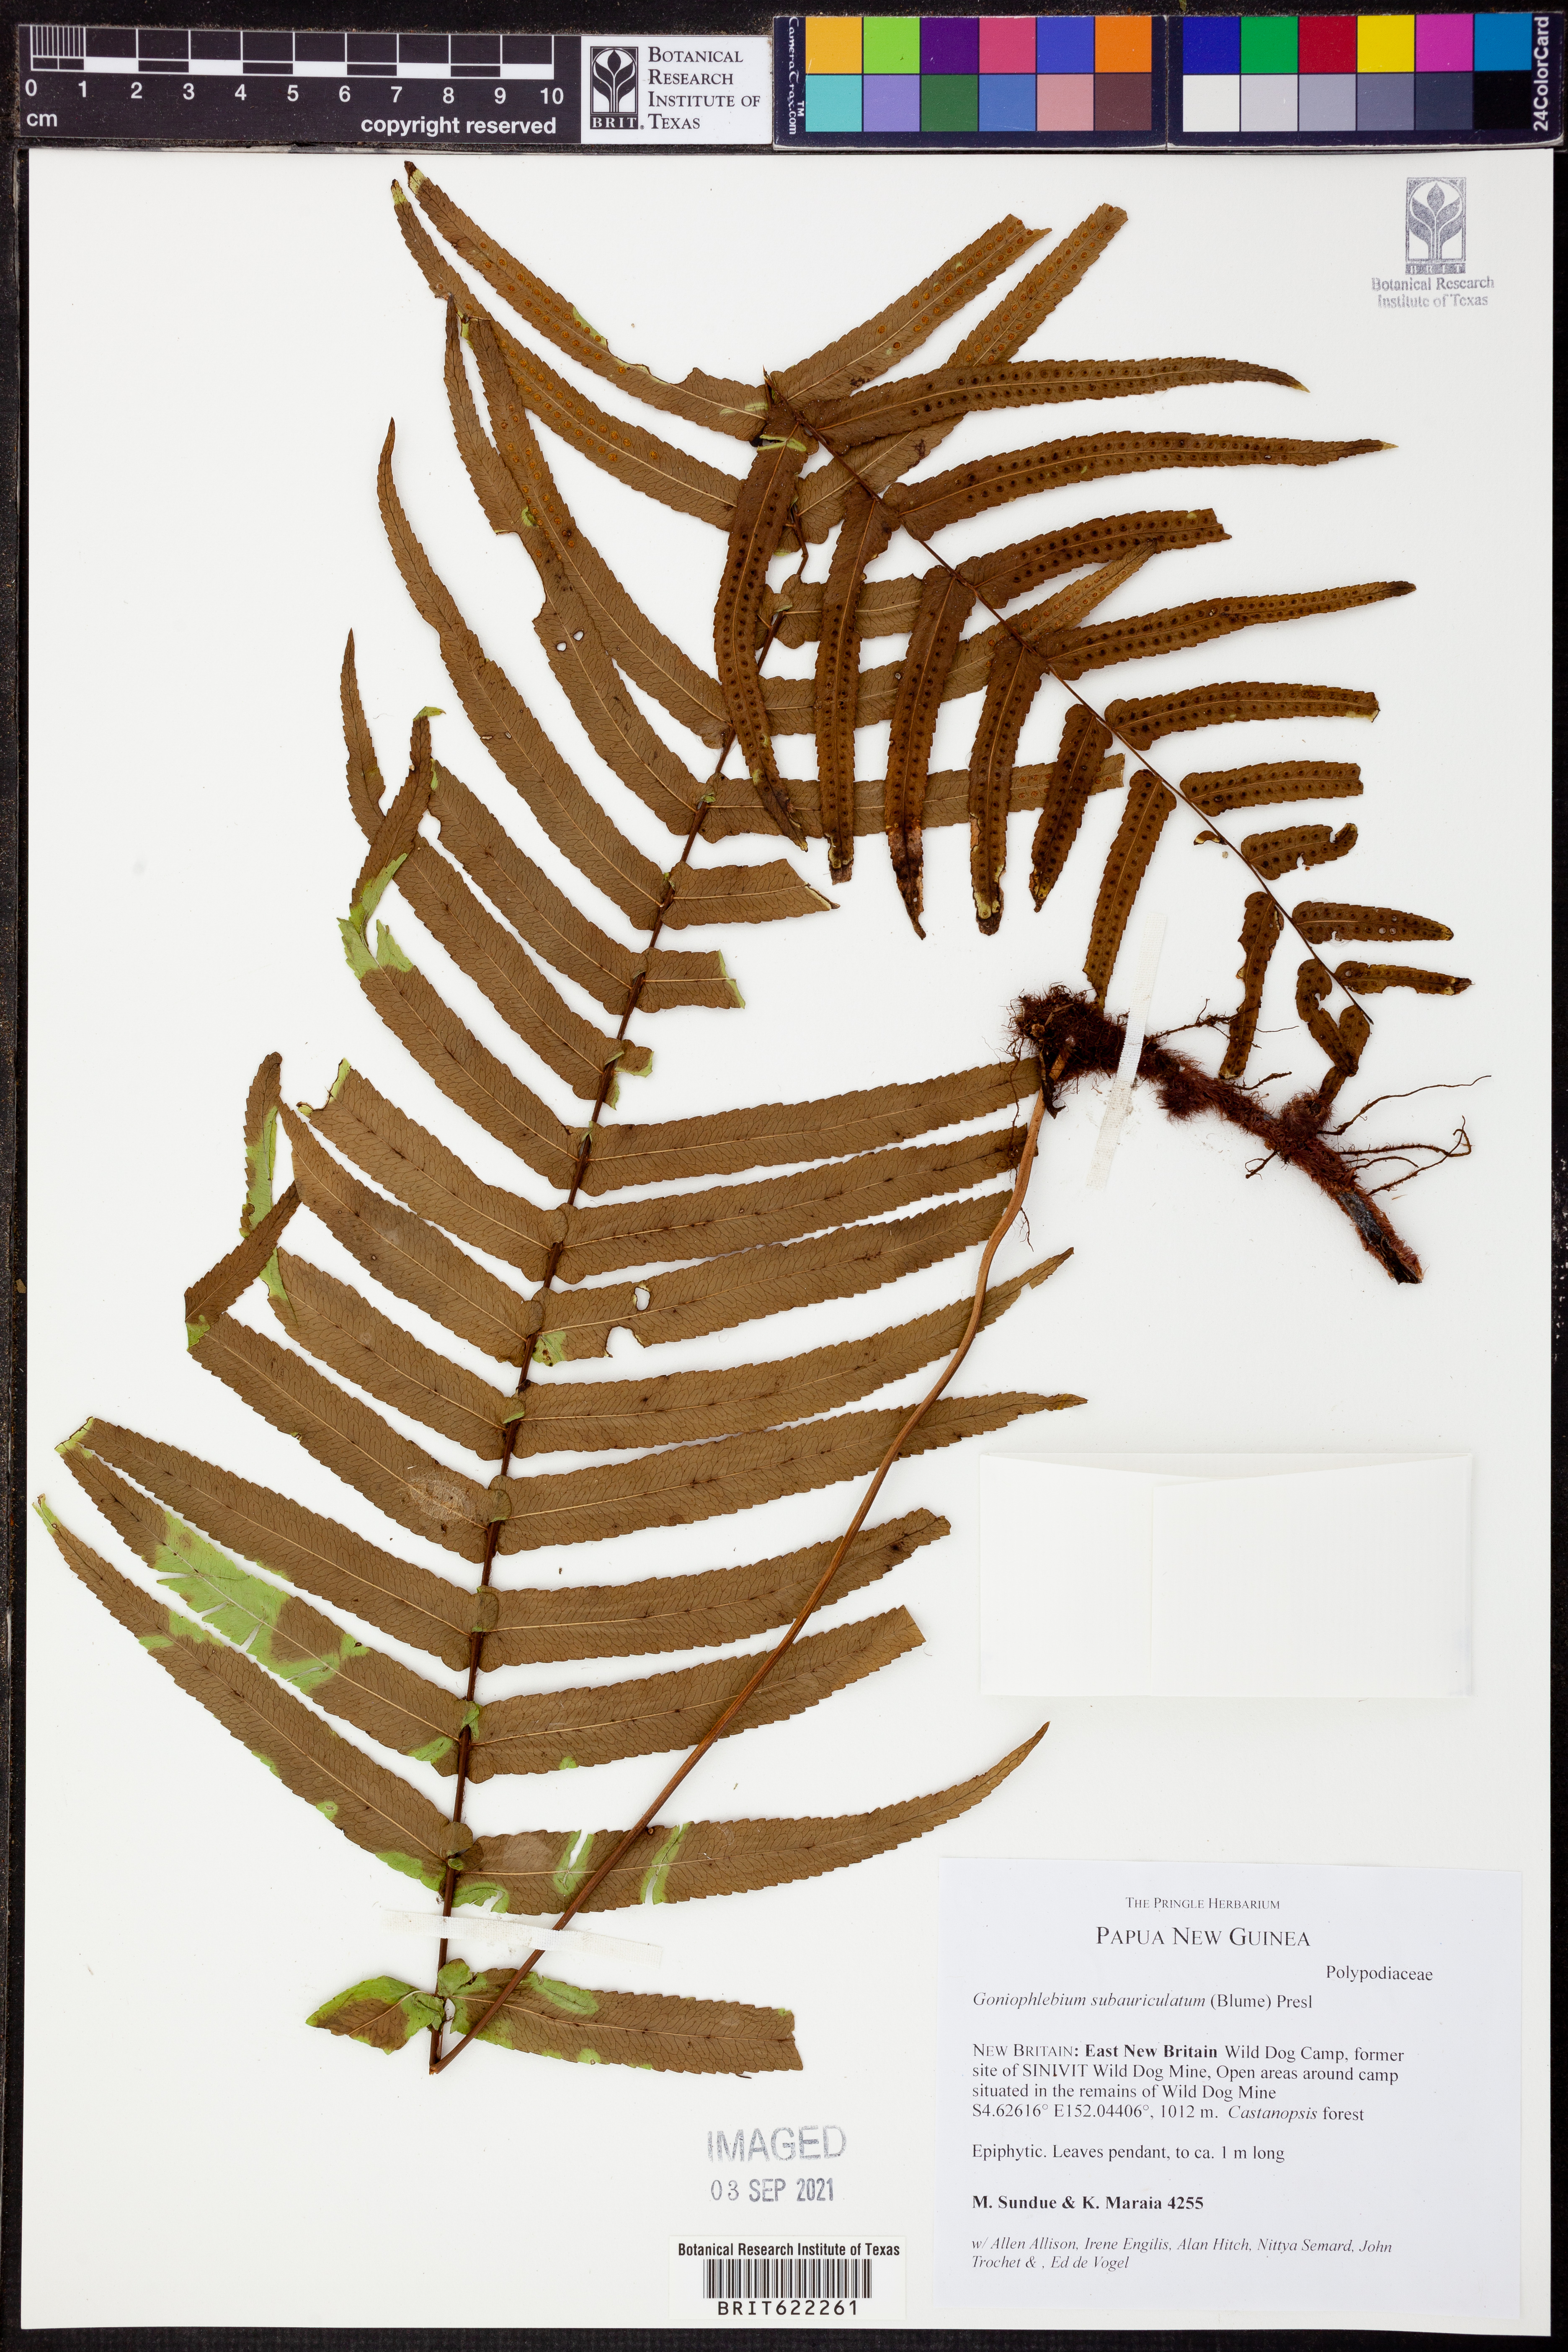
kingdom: Plantae
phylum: Tracheophyta
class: Polypodiopsida
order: Polypodiales
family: Polypodiaceae
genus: Goniophlebium
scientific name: Goniophlebium subauriculatum
